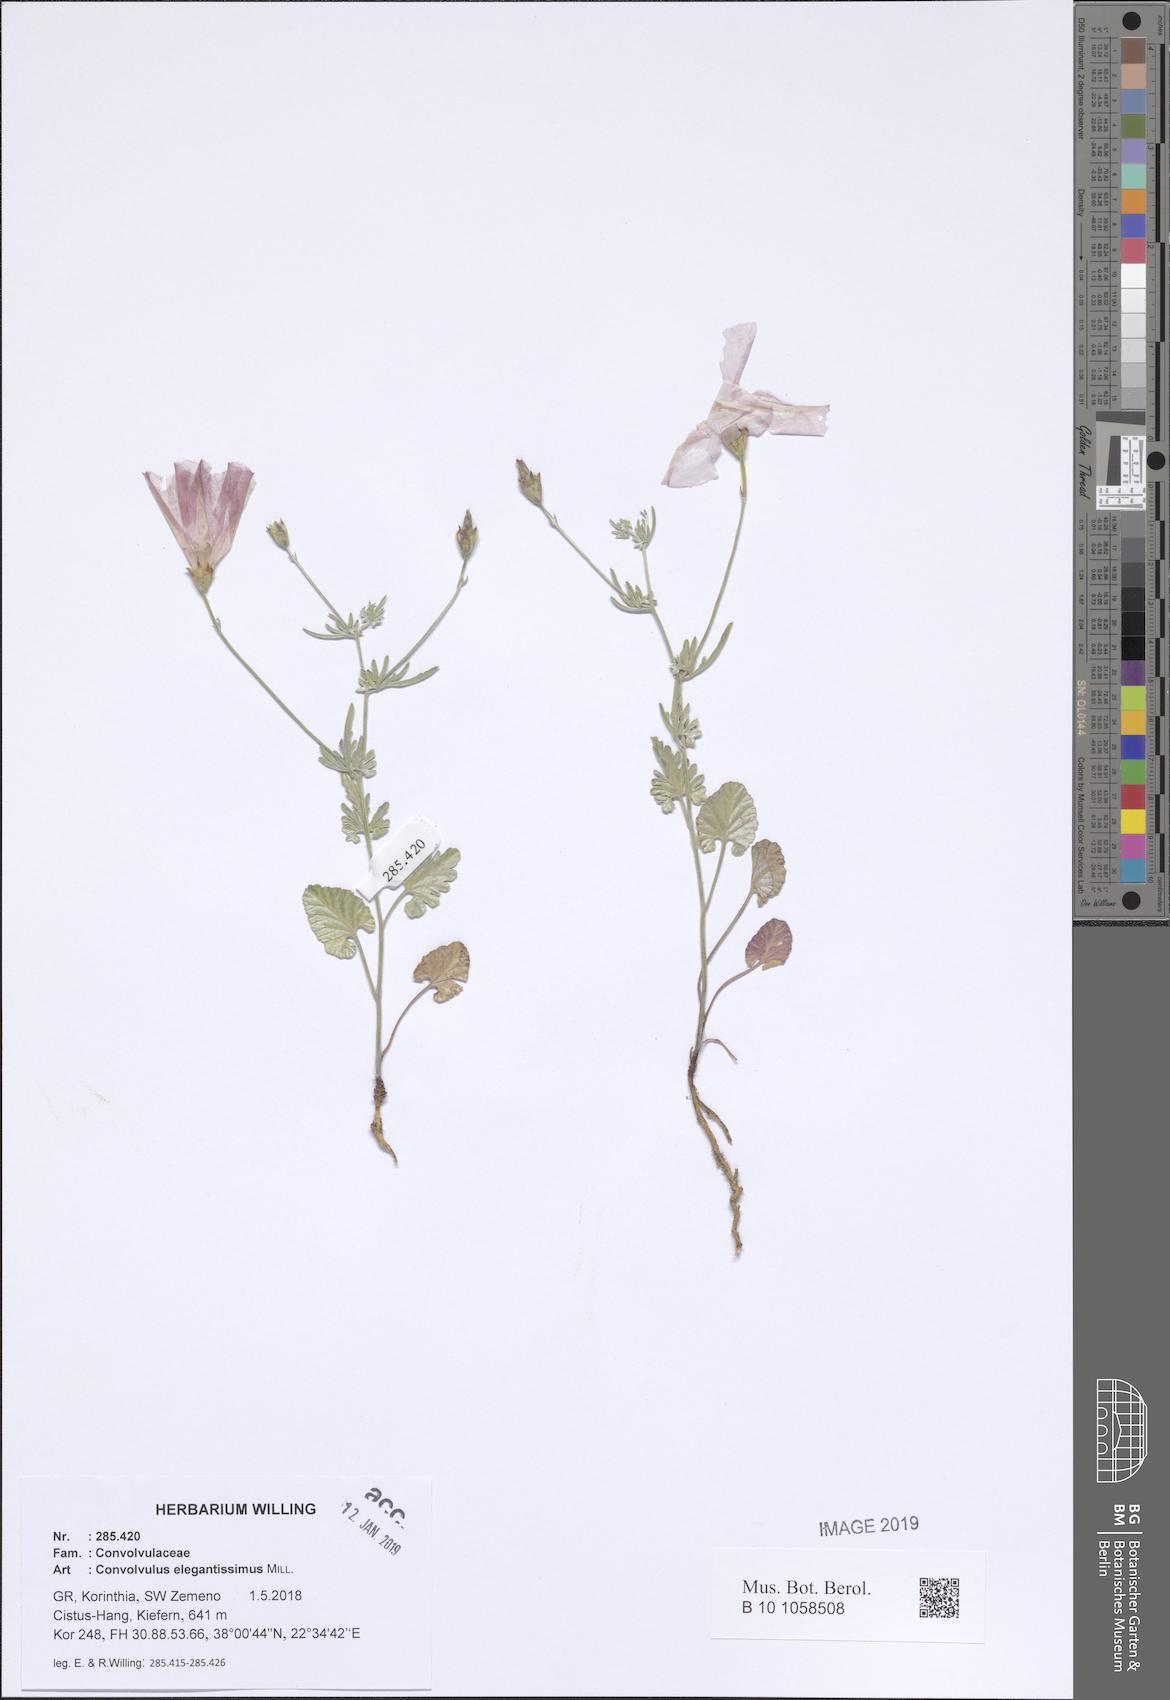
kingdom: Plantae
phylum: Tracheophyta
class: Magnoliopsida
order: Solanales
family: Convolvulaceae
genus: Convolvulus
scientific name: Convolvulus elegantissimus
